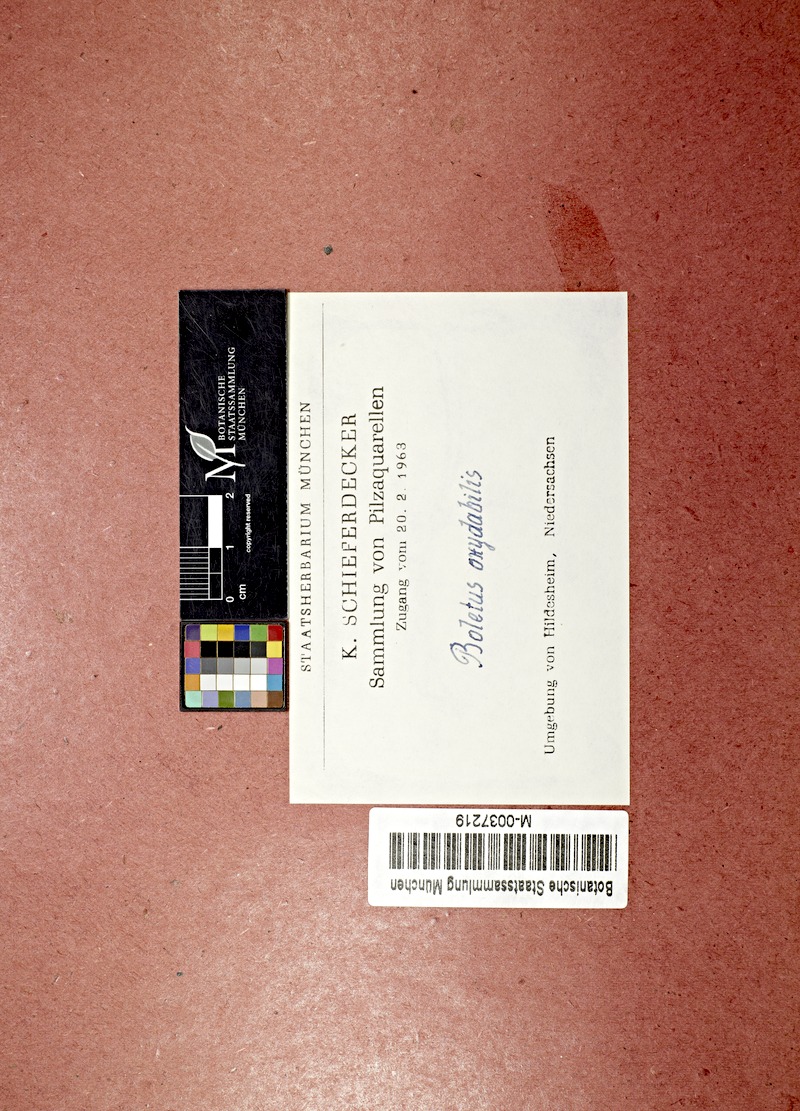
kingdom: Plantae
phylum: Tracheophyta
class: Magnoliopsida
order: Fagales
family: Betulaceae
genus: Betula
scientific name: Betula
